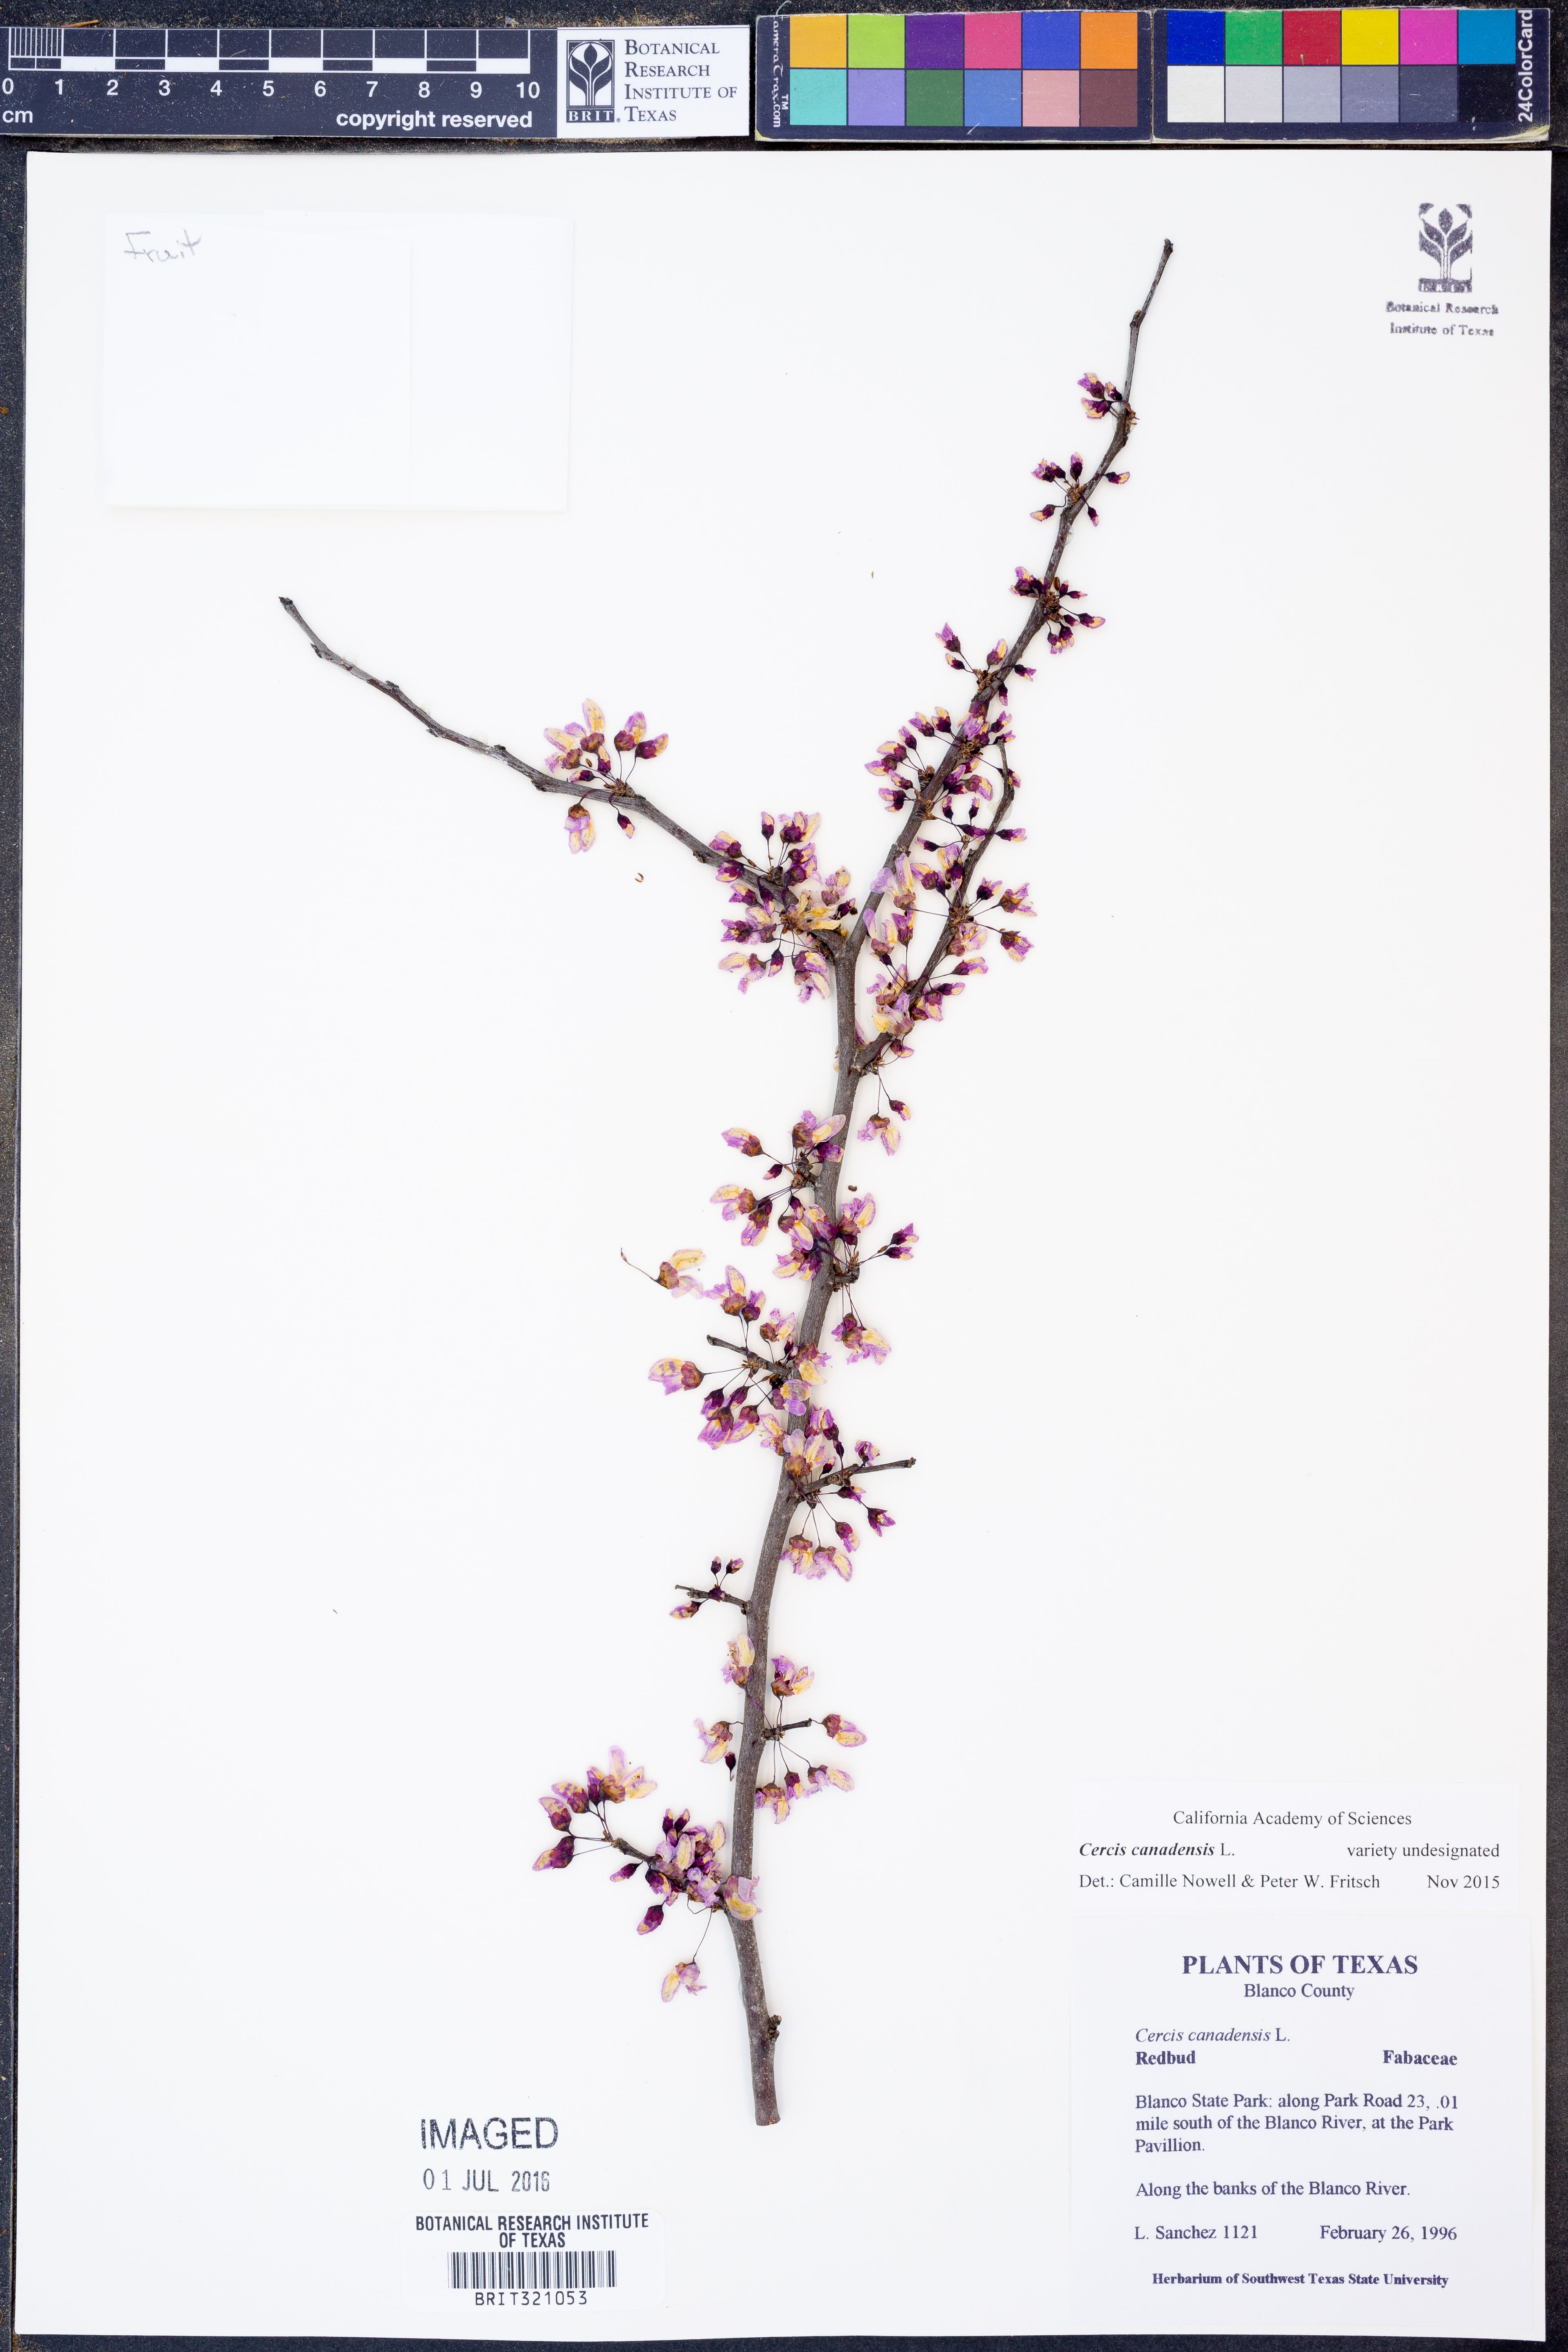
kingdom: Plantae
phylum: Tracheophyta
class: Magnoliopsida
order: Fabales
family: Fabaceae
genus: Cercis
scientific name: Cercis canadensis
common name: Eastern redbud
